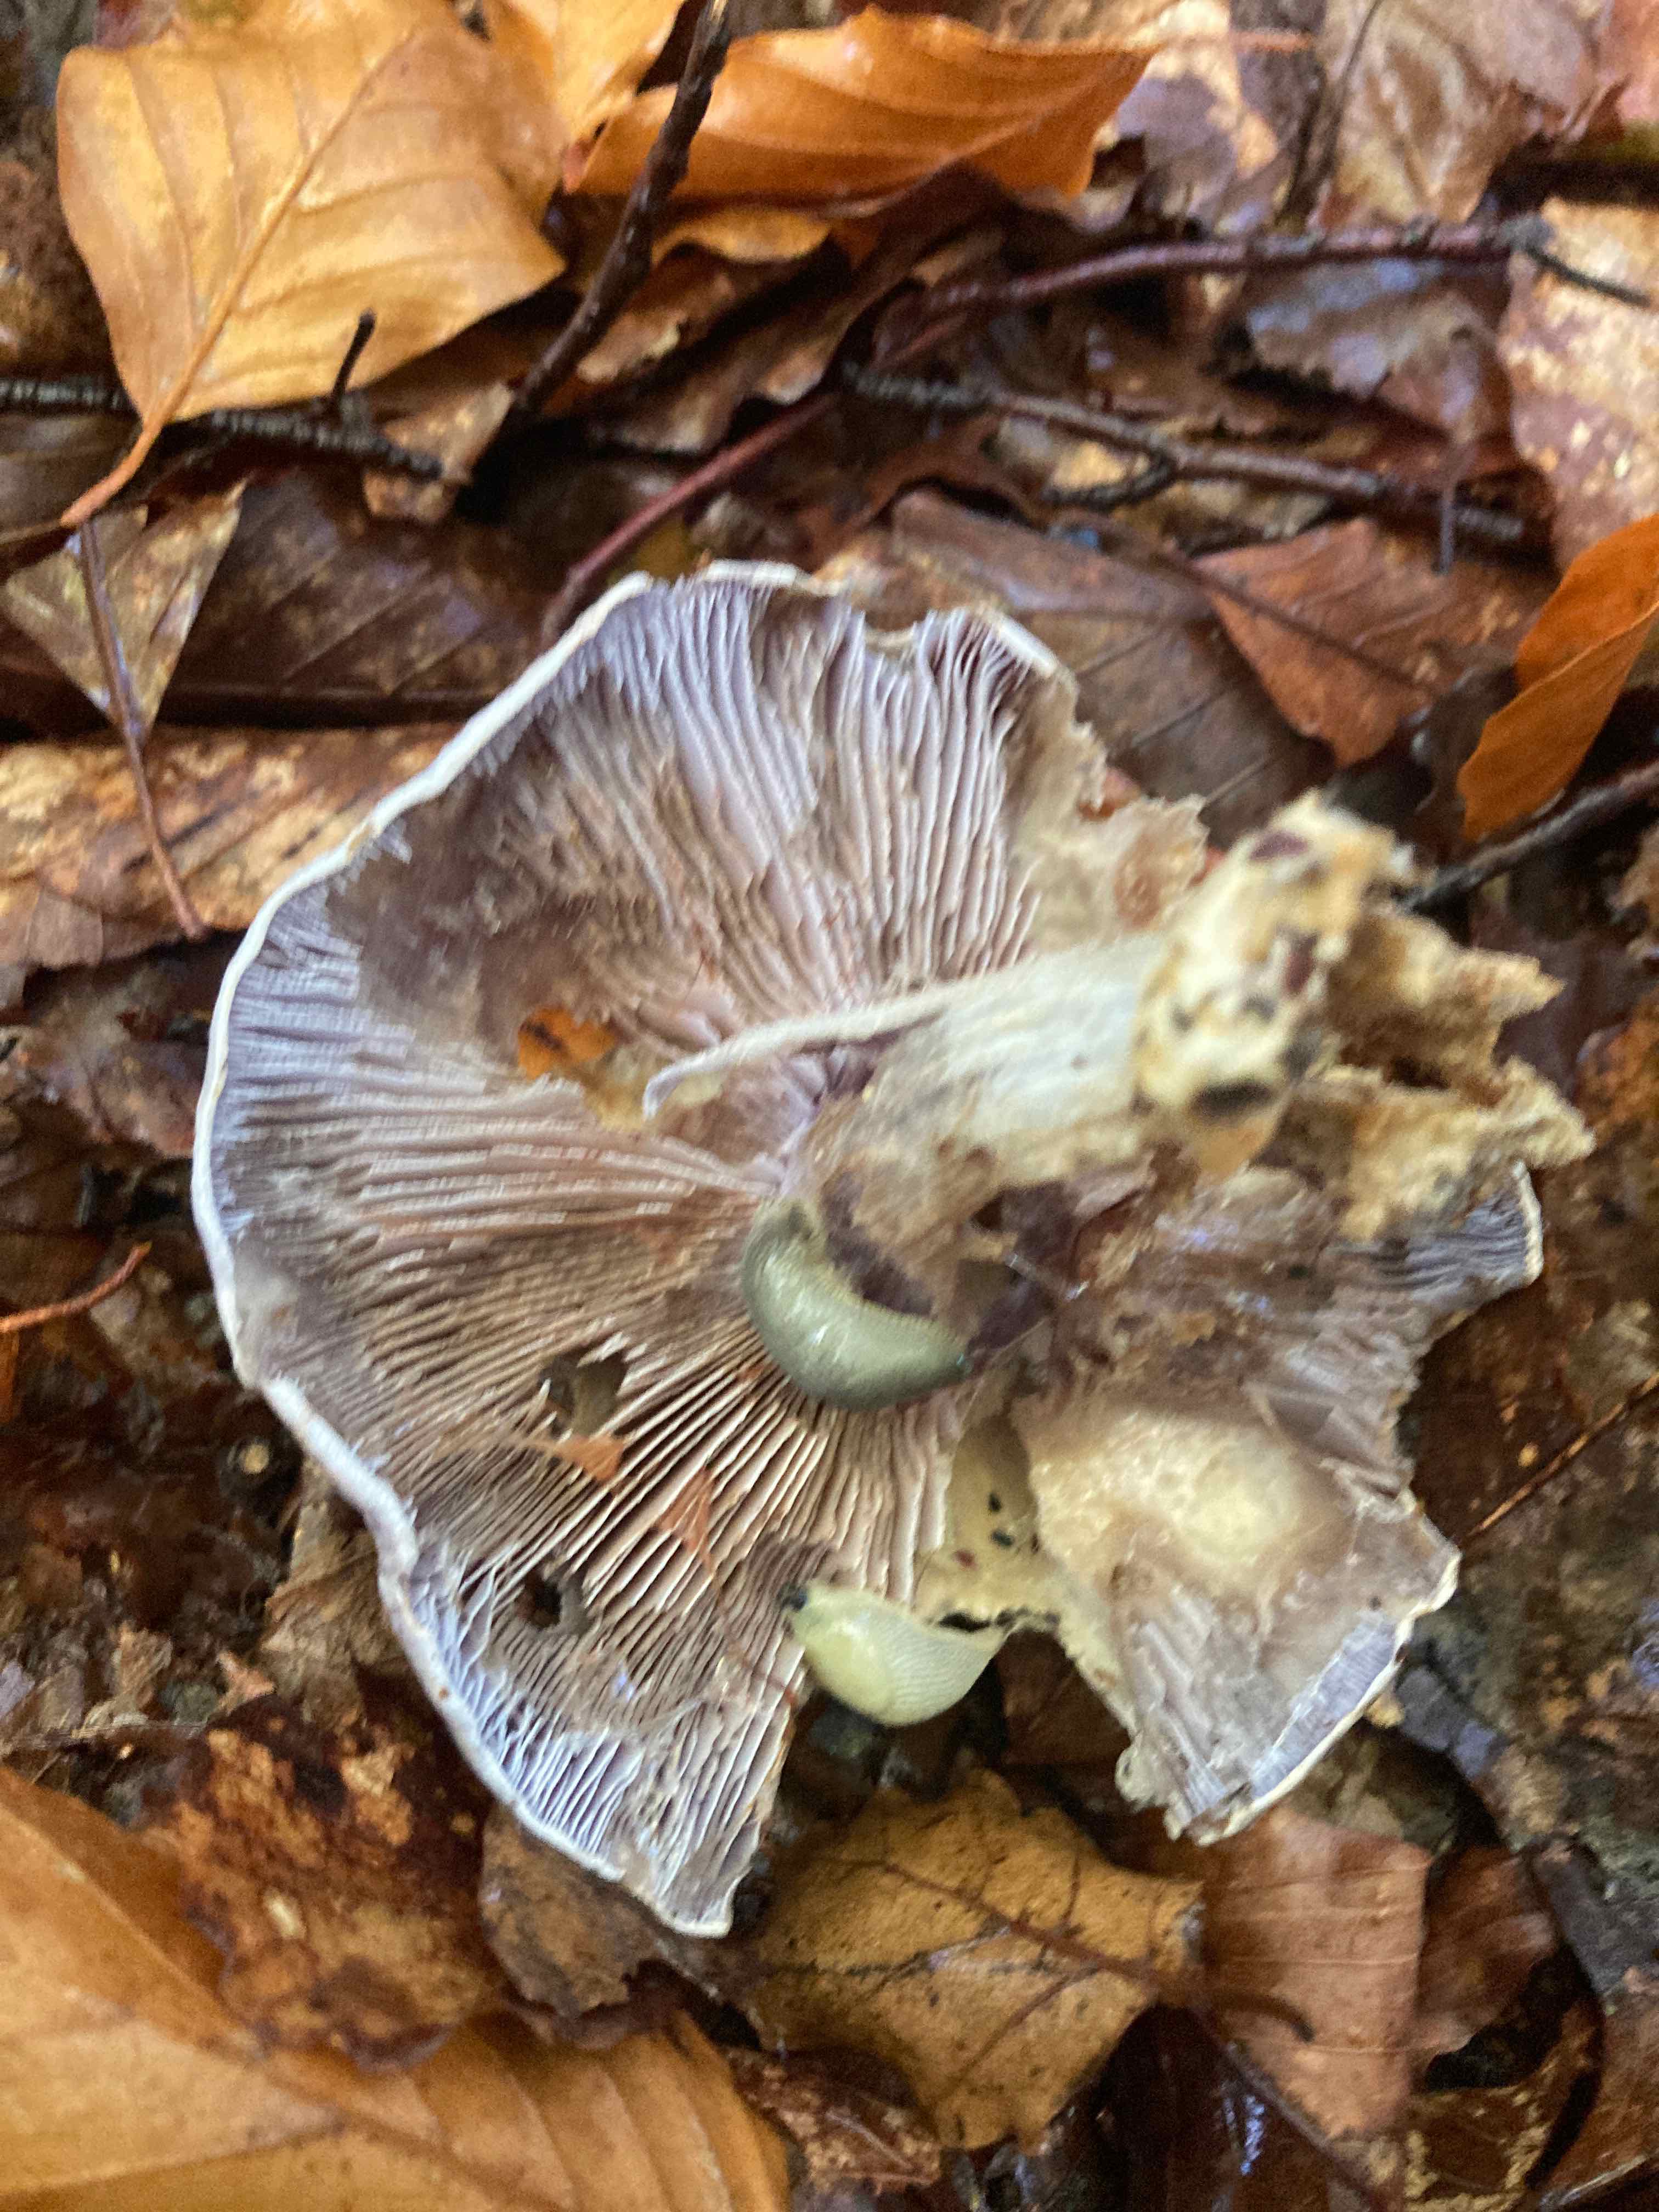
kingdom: Fungi
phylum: Basidiomycota
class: Agaricomycetes
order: Agaricales
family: Cortinariaceae
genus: Cortinarius
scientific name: Cortinarius caerulescens
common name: blåkødet slørhat
